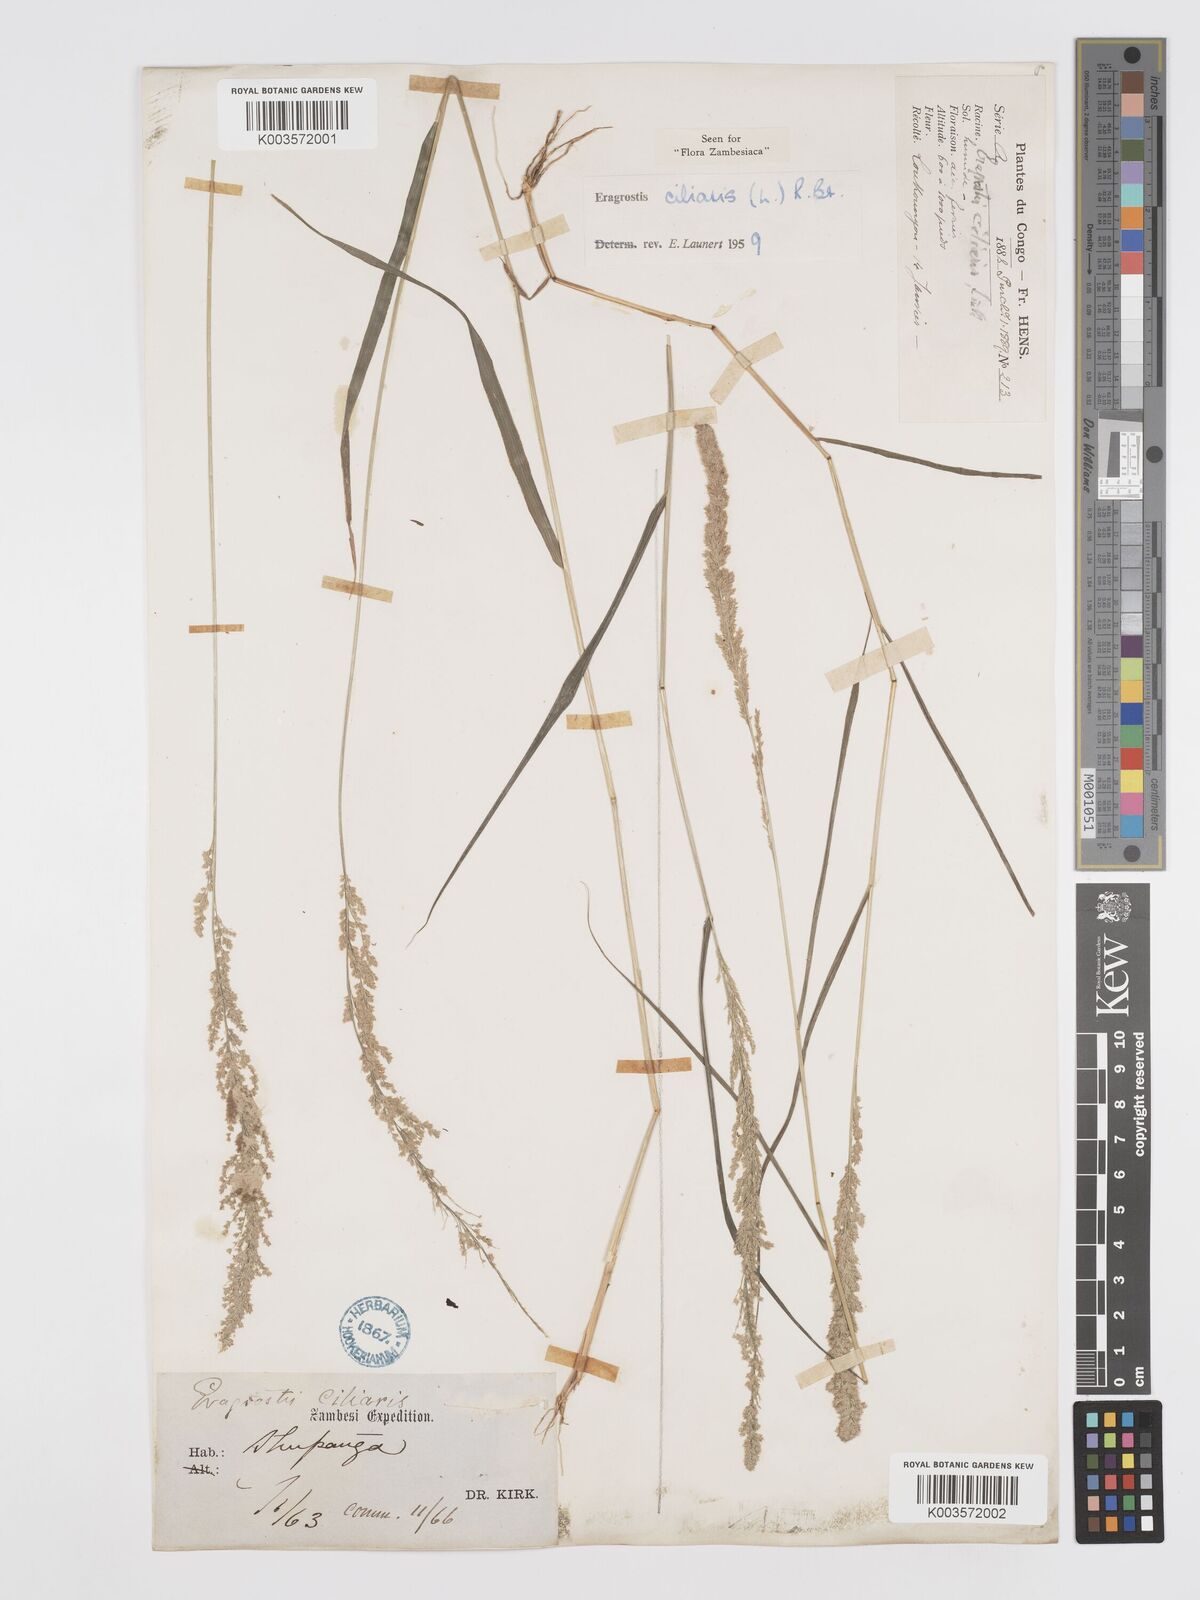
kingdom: Plantae
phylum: Tracheophyta
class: Liliopsida
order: Poales
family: Poaceae
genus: Eragrostis
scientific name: Eragrostis ciliaris
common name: Gophertail lovegrass
